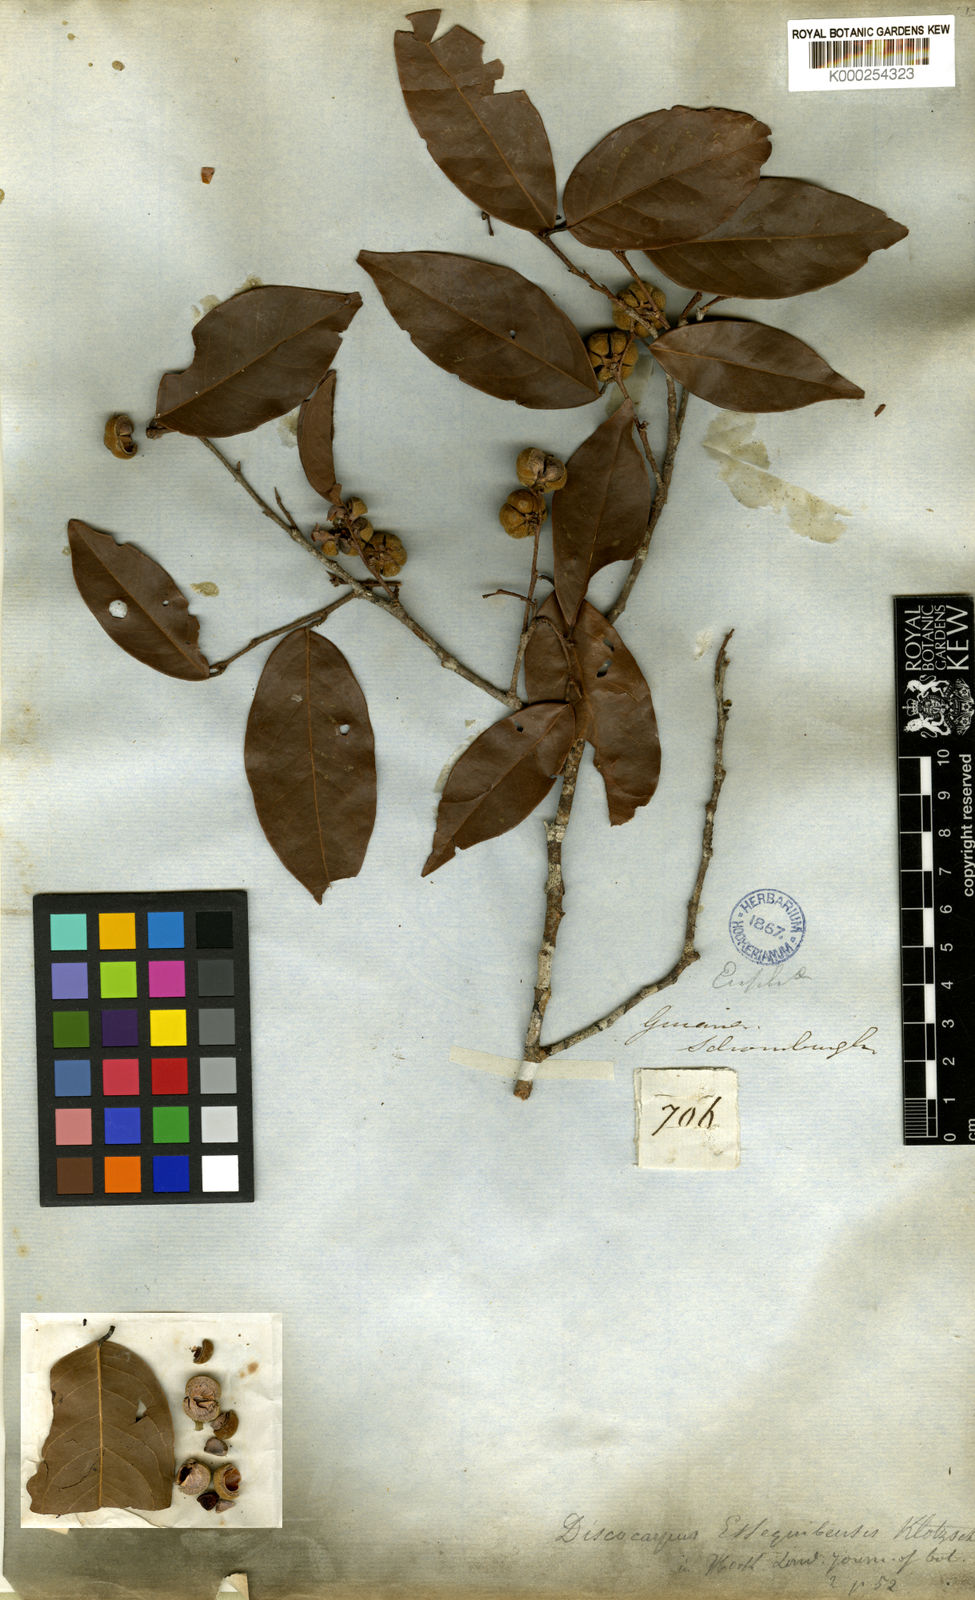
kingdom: Plantae
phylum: Tracheophyta
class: Magnoliopsida
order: Malpighiales
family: Phyllanthaceae
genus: Discocarpus
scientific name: Discocarpus essequeboensis
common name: Sqaure-wood
